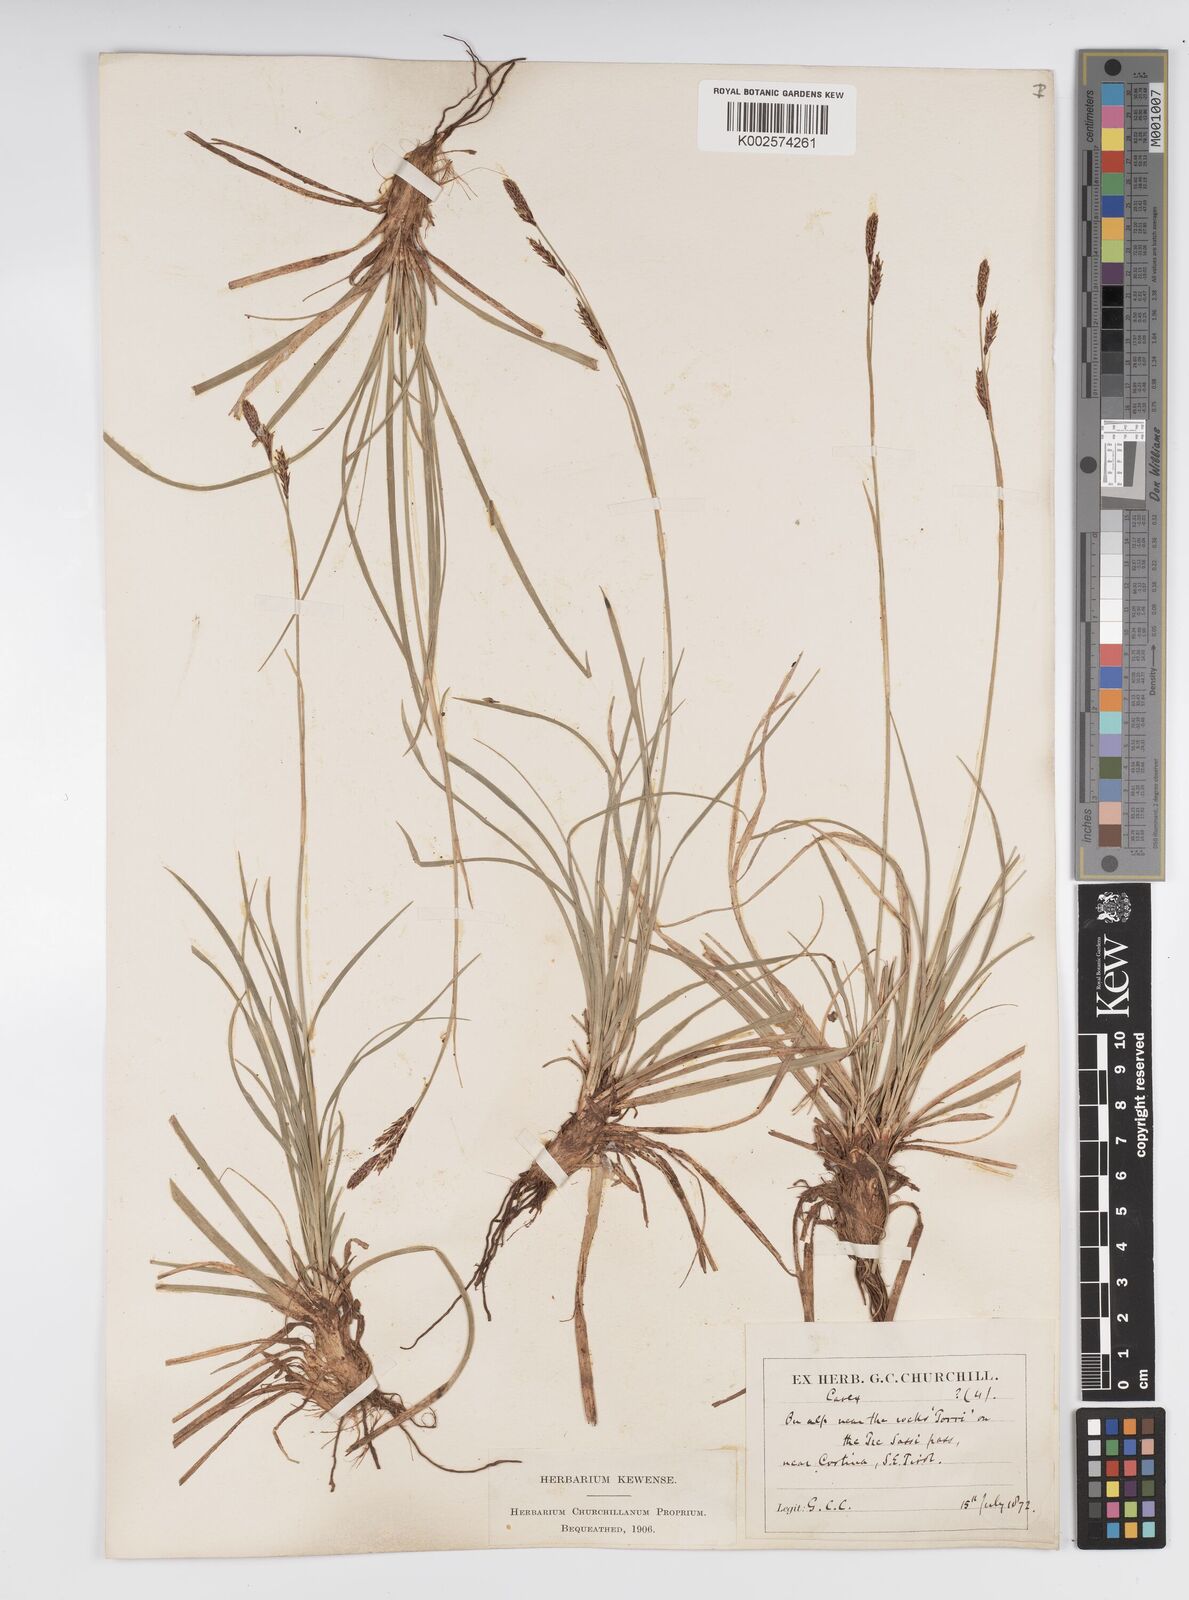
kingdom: Plantae
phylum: Tracheophyta
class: Liliopsida
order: Poales
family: Cyperaceae
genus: Carex
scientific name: Carex frigida
